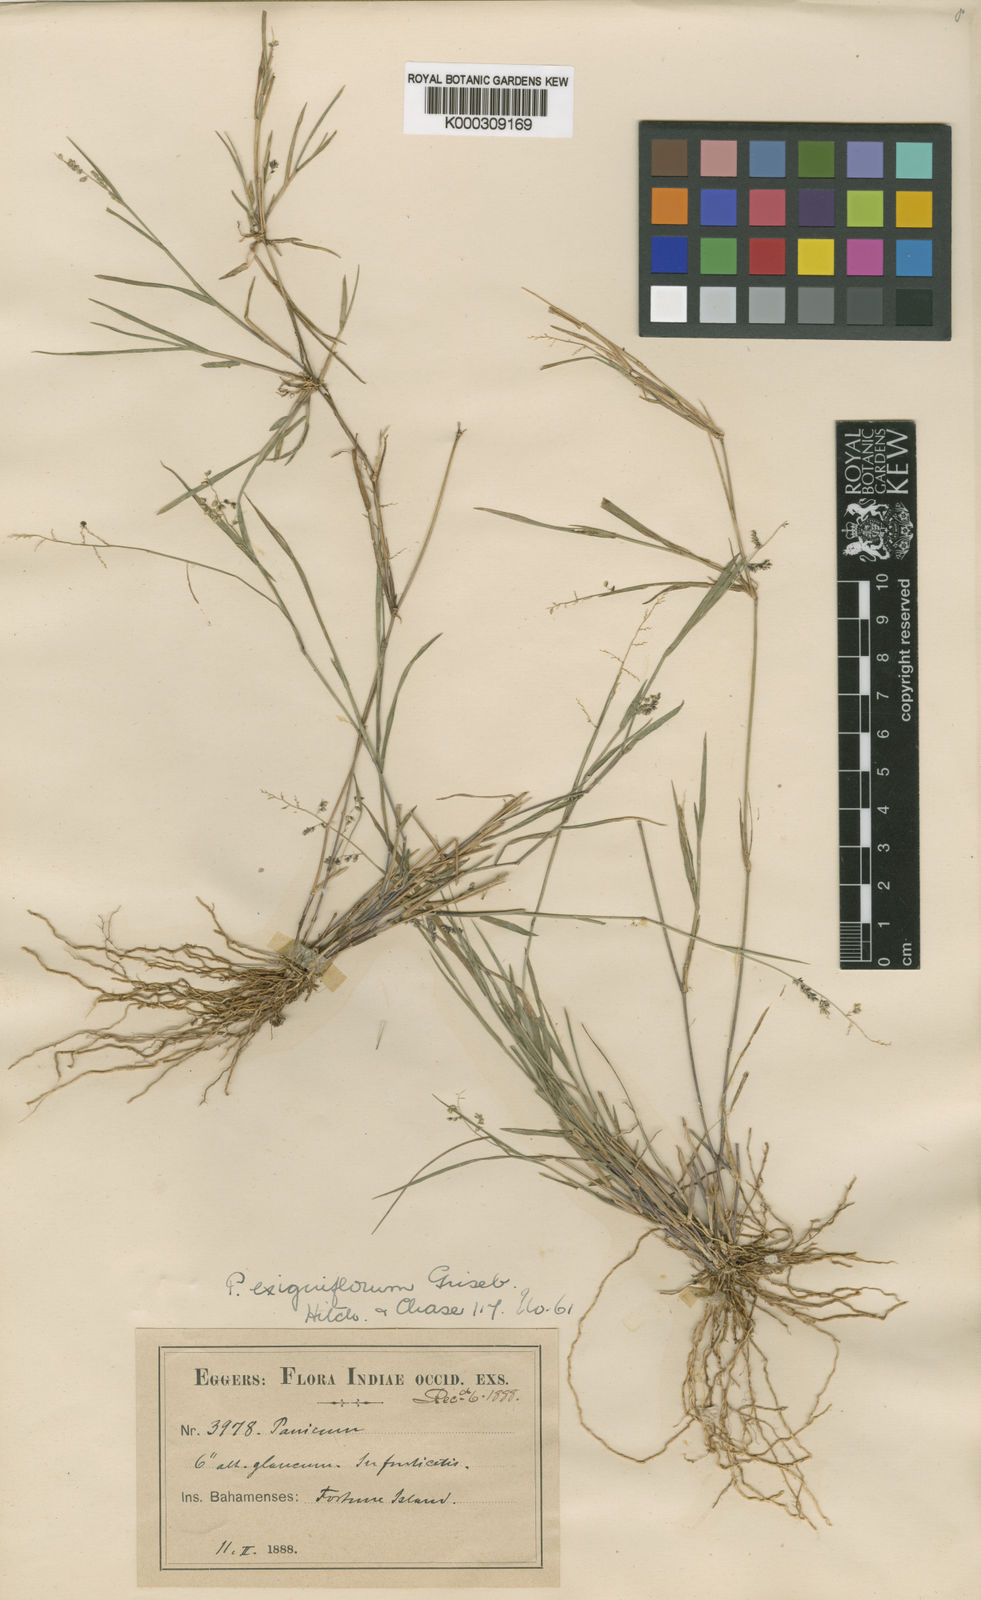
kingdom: Plantae
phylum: Tracheophyta
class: Liliopsida
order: Poales
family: Poaceae
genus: Steinchisma
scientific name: Steinchisma
